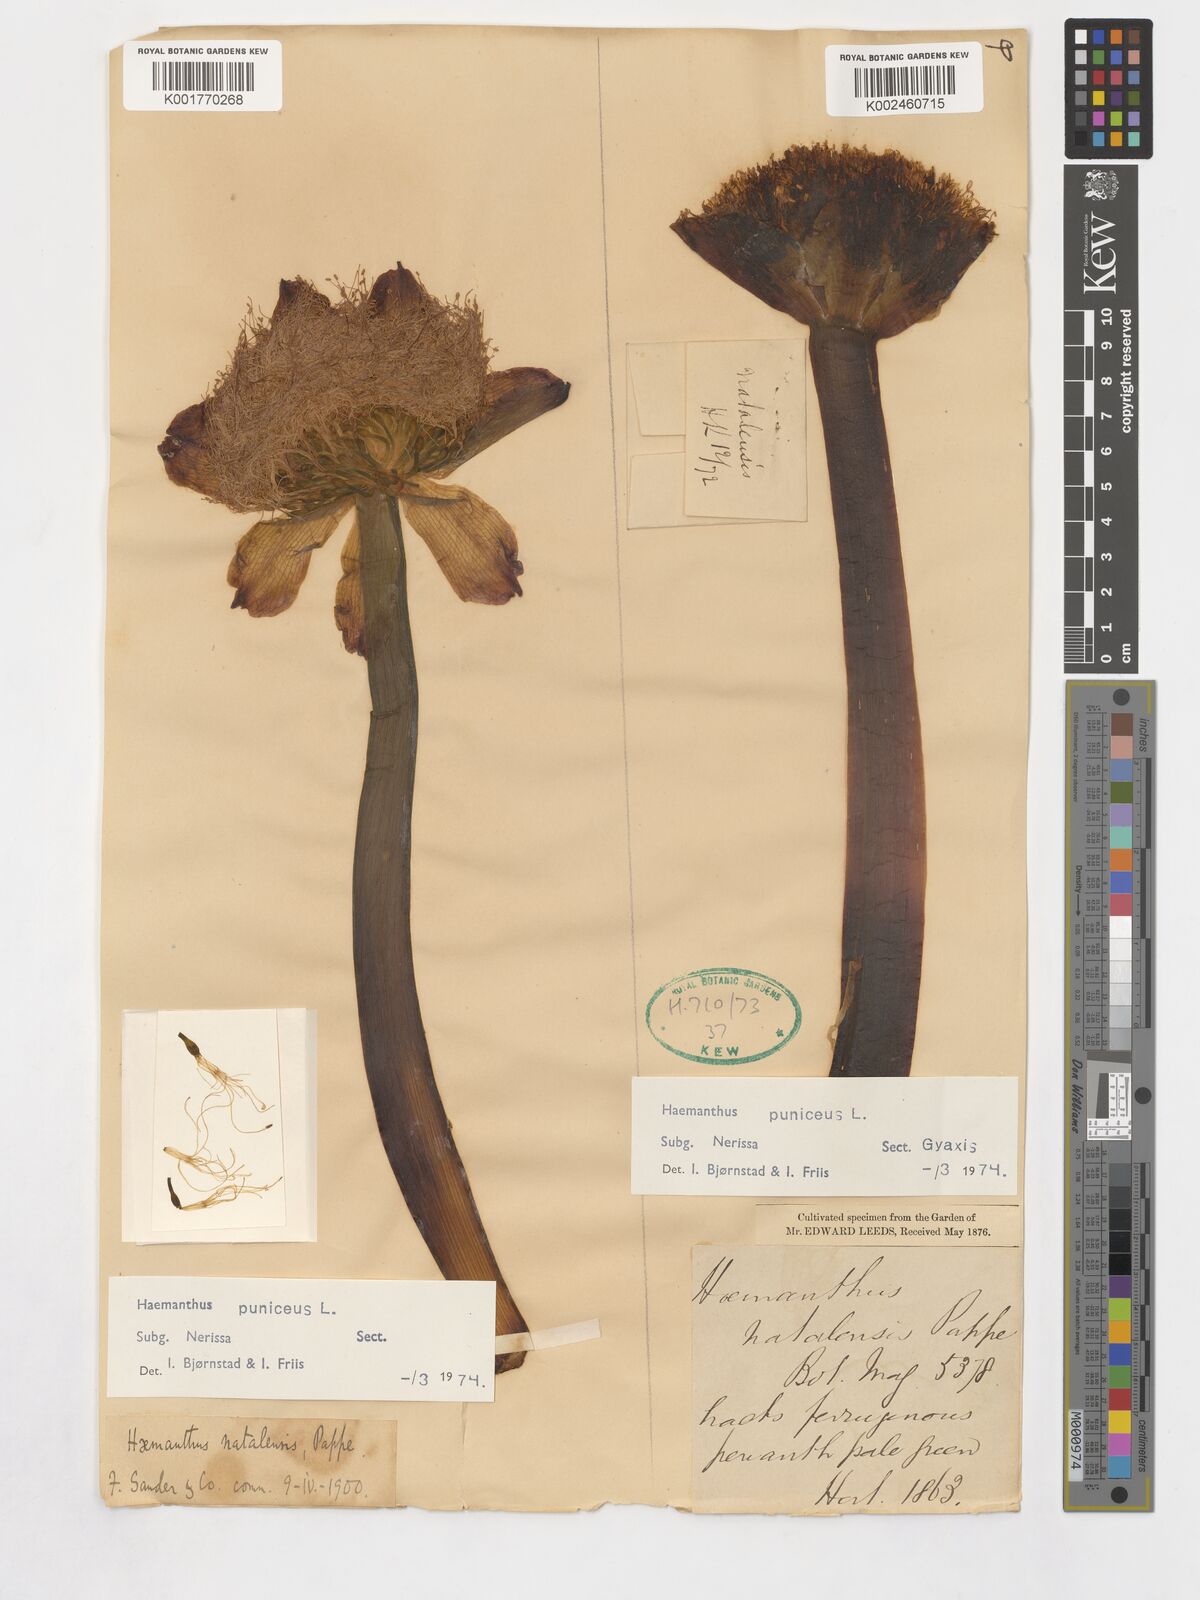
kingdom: Plantae
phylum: Tracheophyta
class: Liliopsida
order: Asparagales
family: Amaryllidaceae
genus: Scadoxus
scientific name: Scadoxus puniceus
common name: Royal-paintbrush
